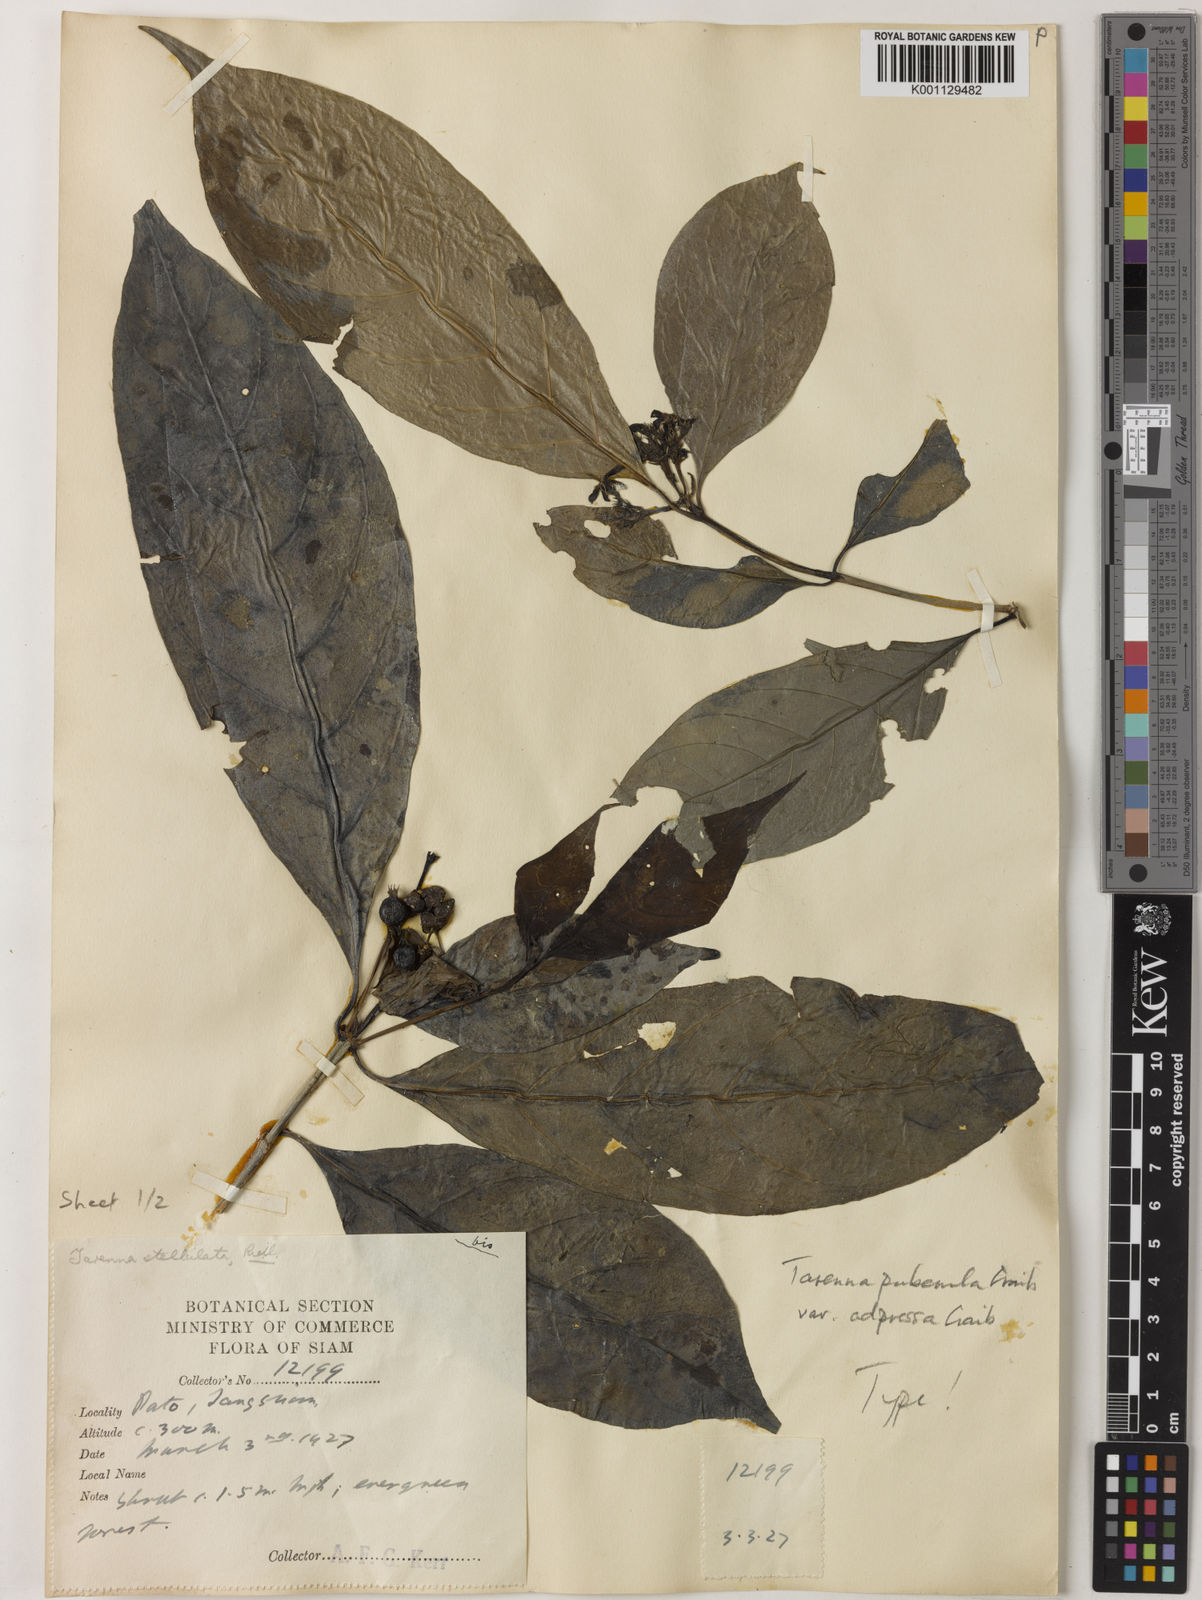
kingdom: Plantae
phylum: Tracheophyta
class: Magnoliopsida
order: Gentianales
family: Rubiaceae
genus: Tarenna
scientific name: Tarenna puberula
